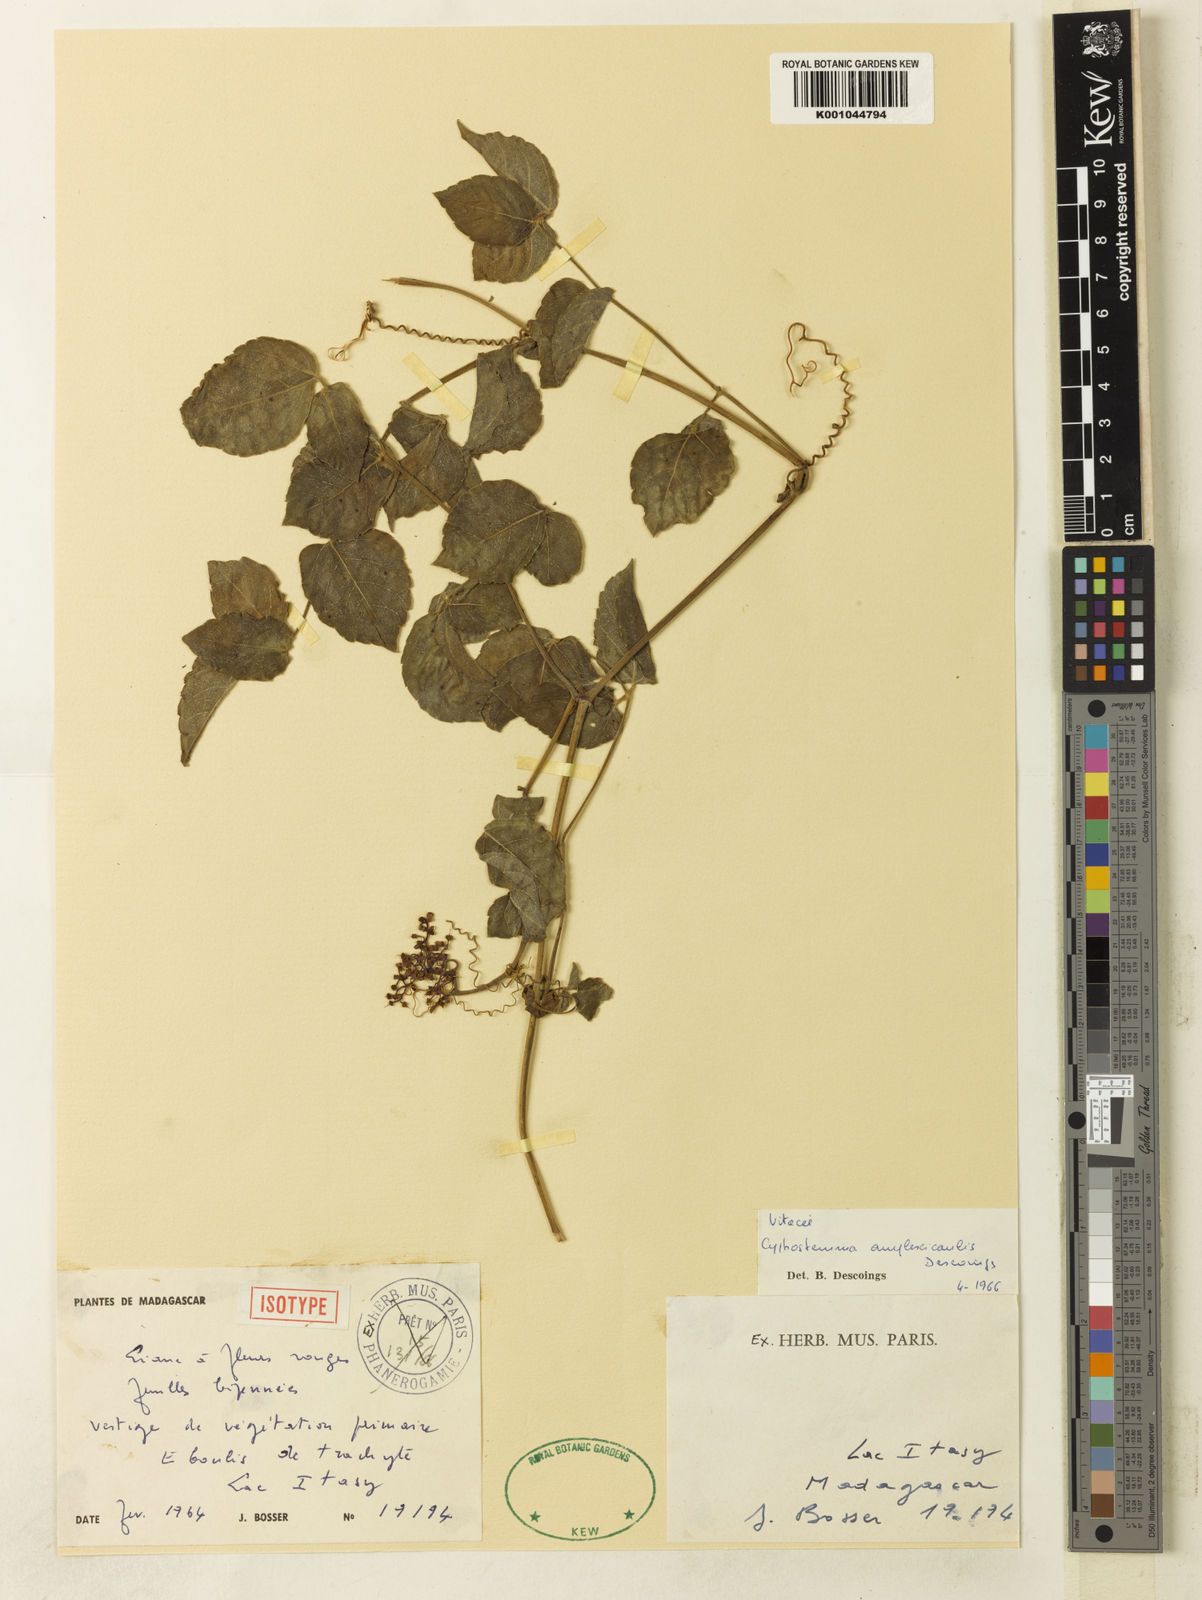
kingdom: Plantae
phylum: Tracheophyta
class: Magnoliopsida
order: Vitales
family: Vitaceae
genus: Cyphostemma
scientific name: Cyphostemma amplexicaule
